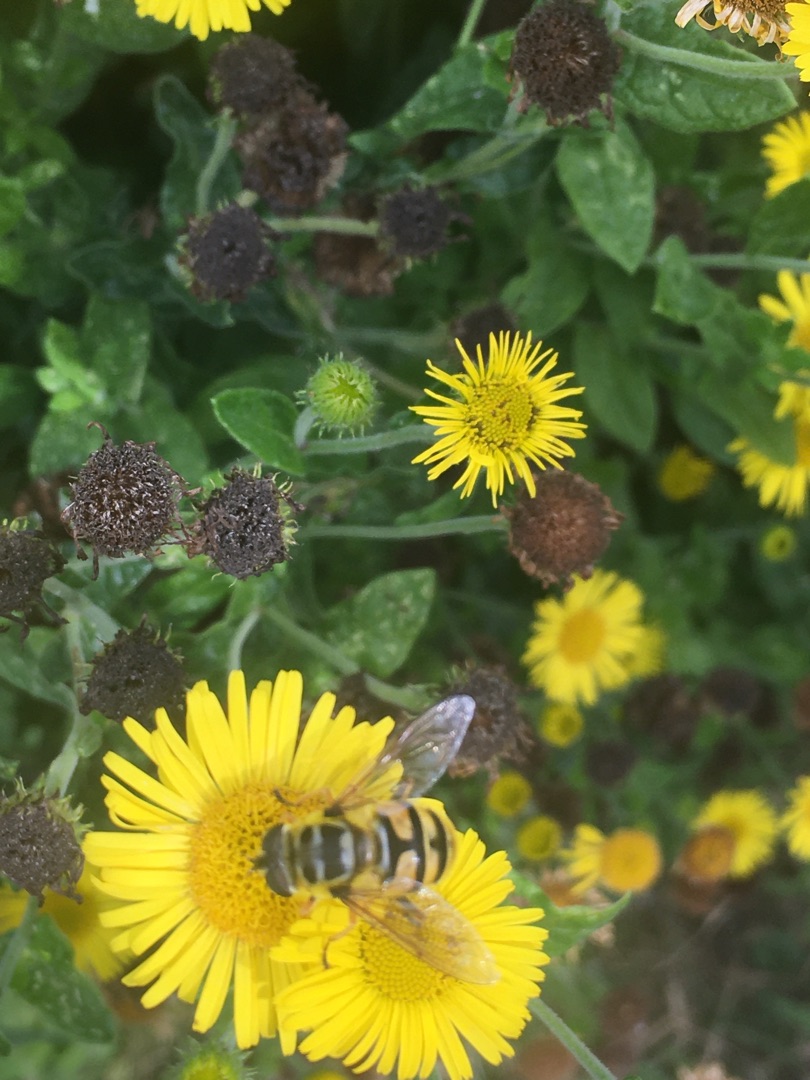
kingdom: Animalia
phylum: Arthropoda
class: Insecta
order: Diptera
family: Syrphidae
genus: Myathropa
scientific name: Myathropa florea
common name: Dødningehoved-svirreflue
